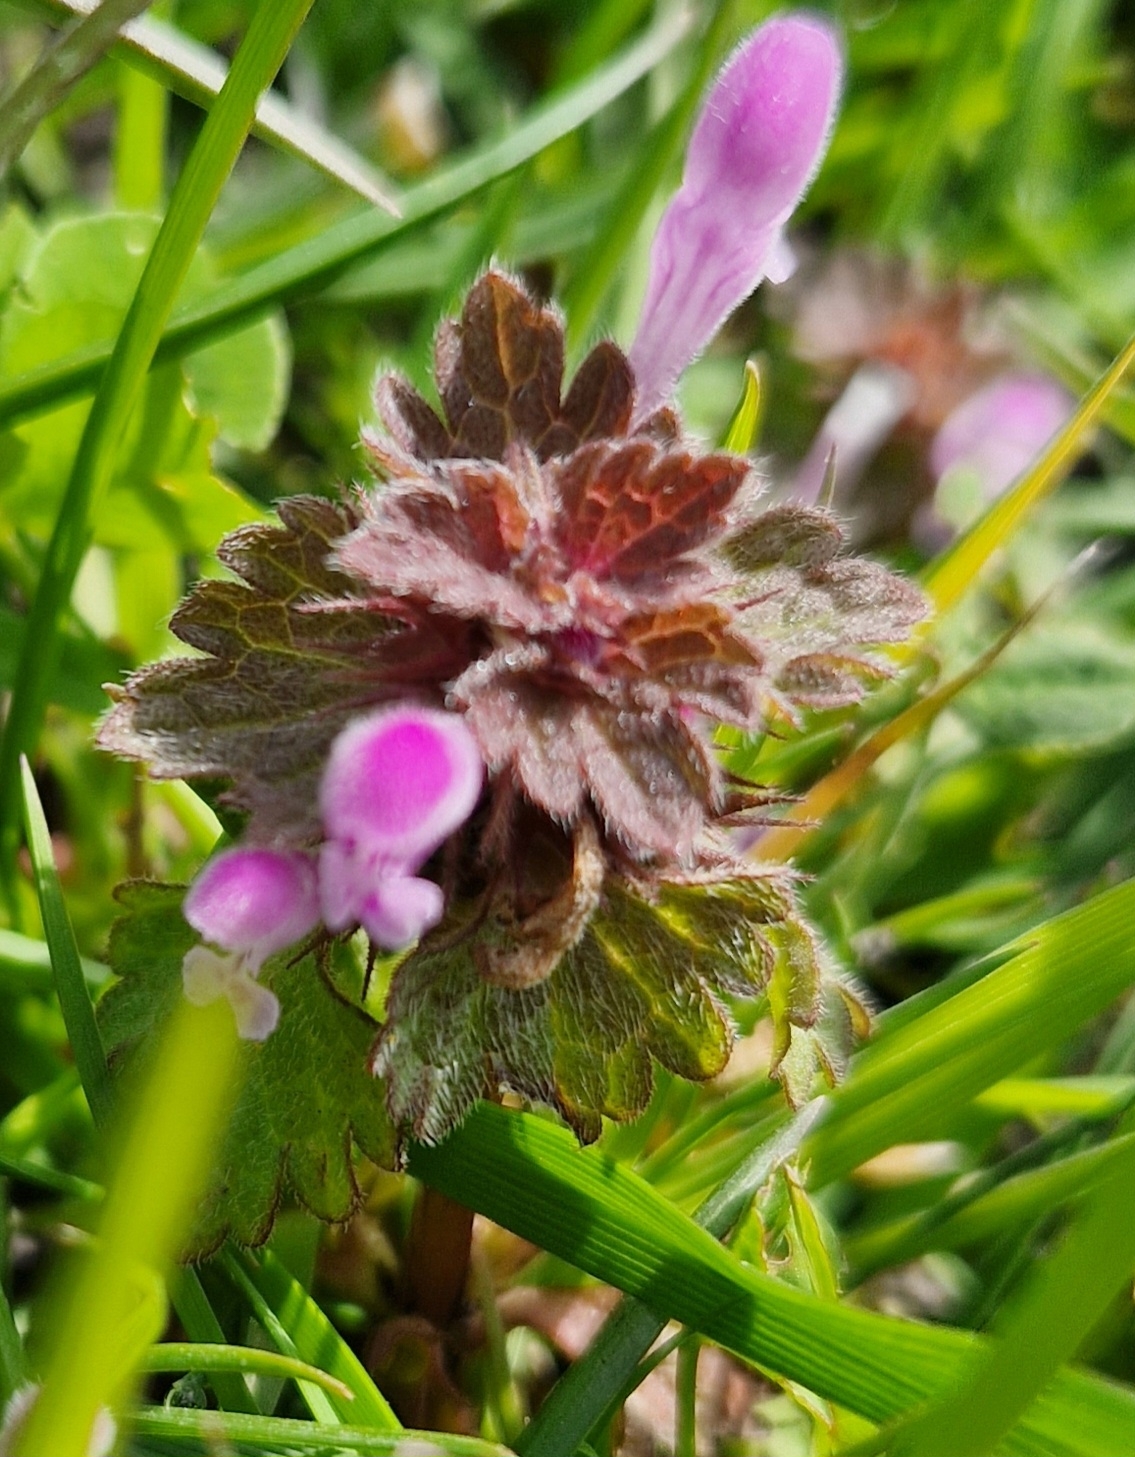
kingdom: Plantae
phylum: Tracheophyta
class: Magnoliopsida
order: Lamiales
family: Lamiaceae
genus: Lamium
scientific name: Lamium hybridum
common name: Fliget tvetand
